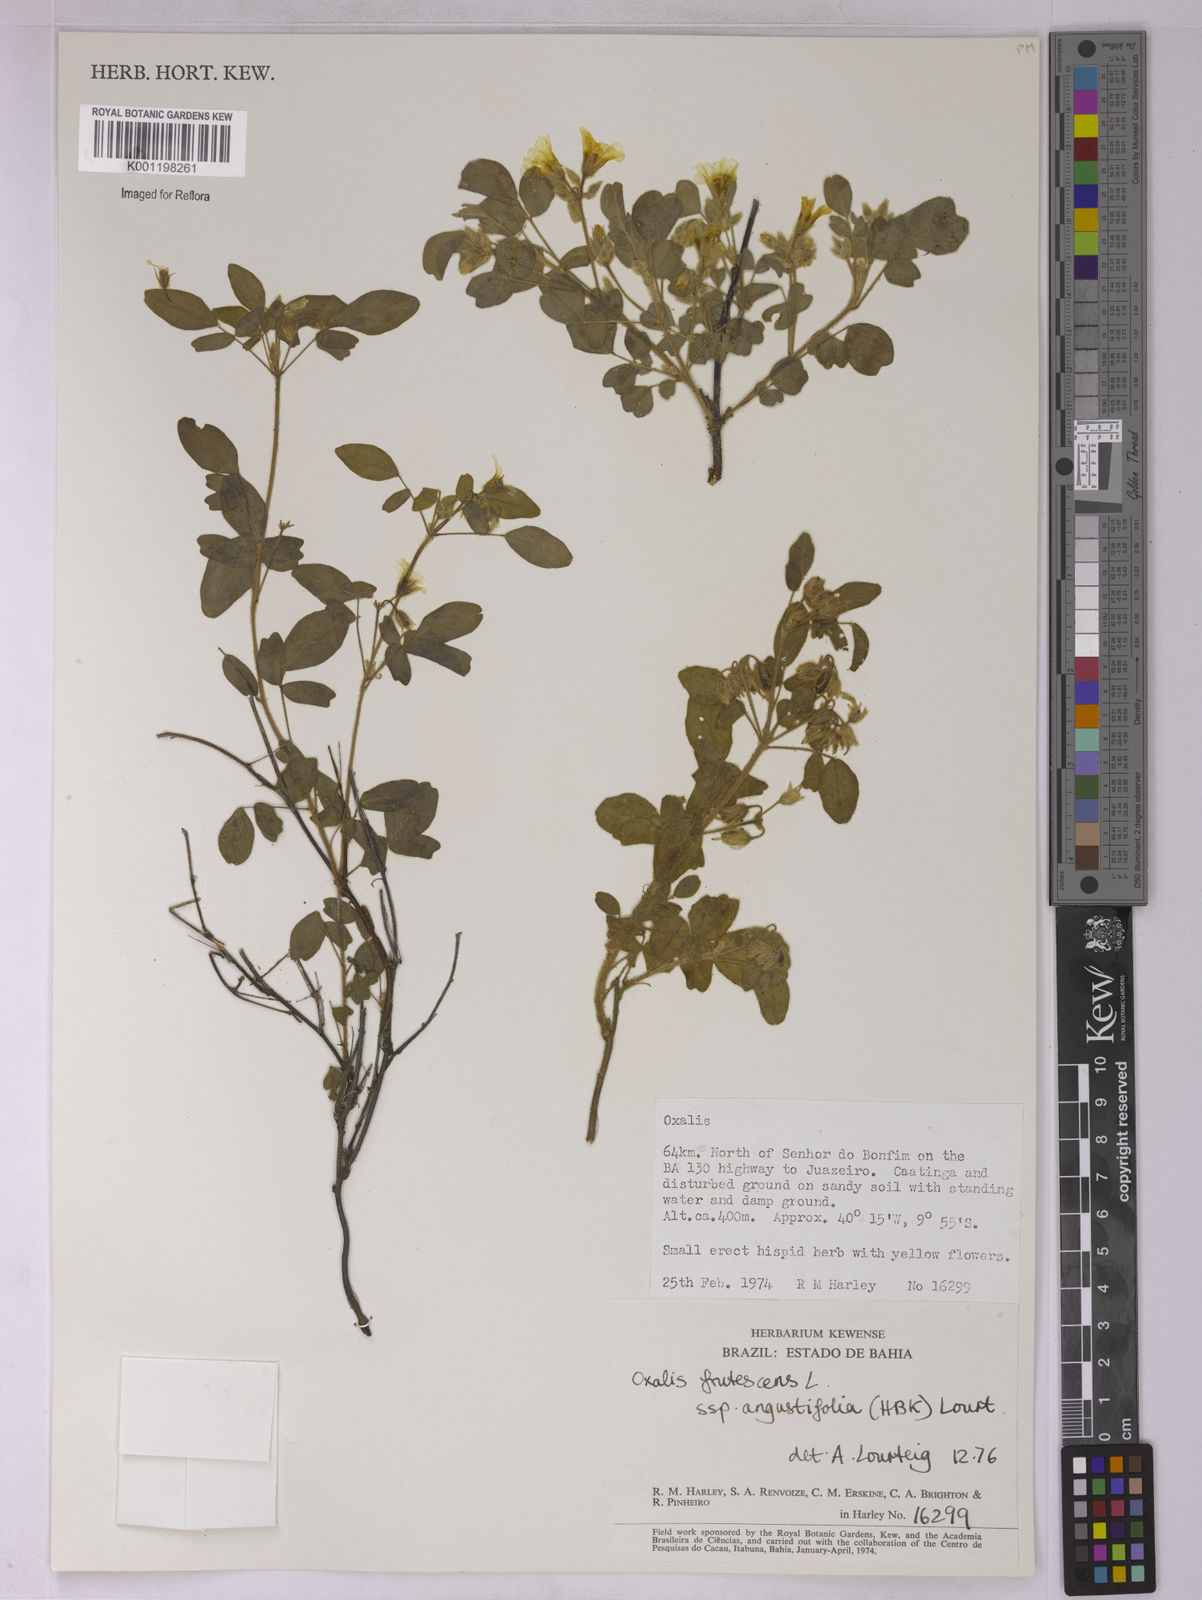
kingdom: Plantae
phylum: Tracheophyta
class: Magnoliopsida
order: Oxalidales
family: Oxalidaceae
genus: Oxalis
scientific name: Oxalis frutescens
